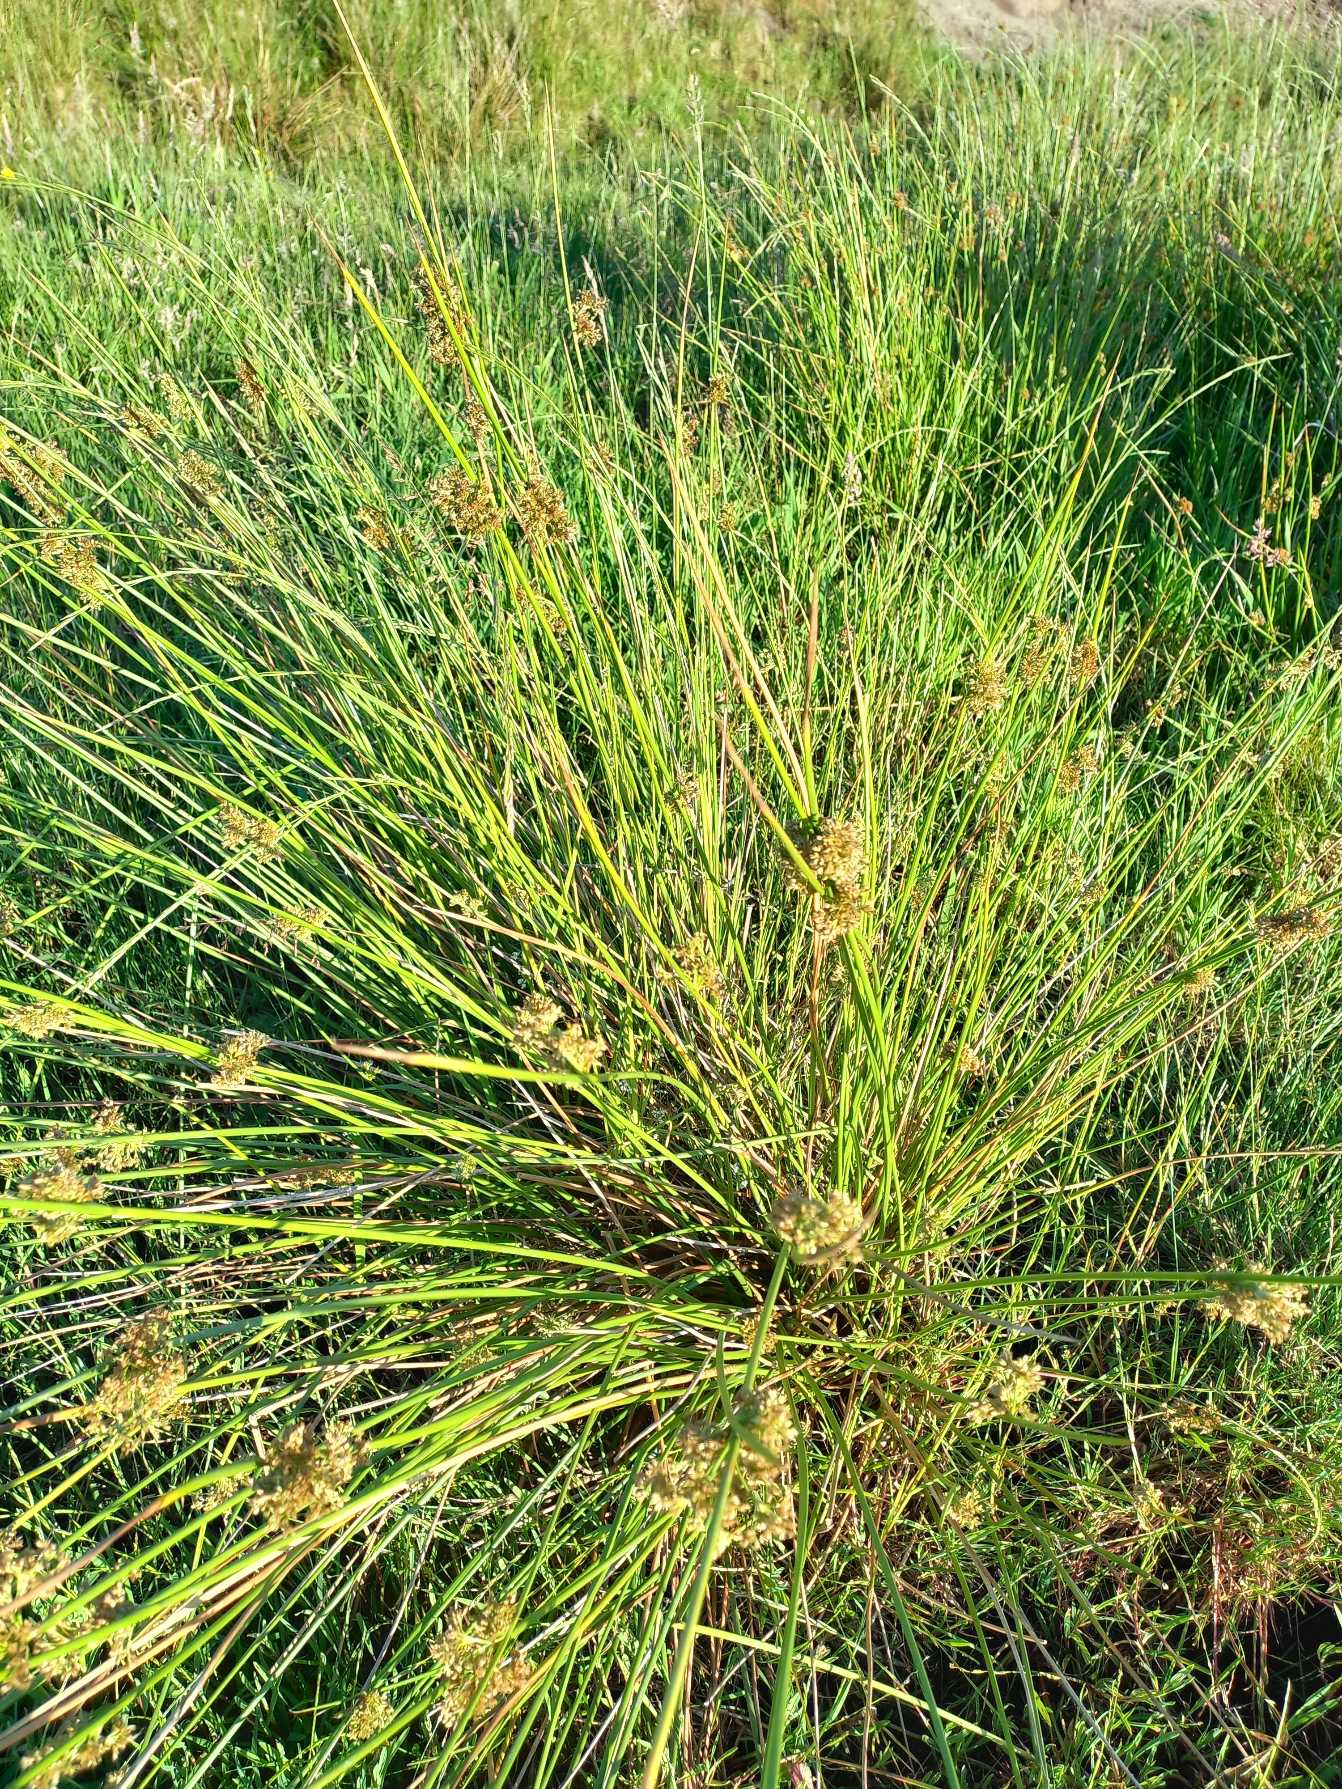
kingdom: Plantae
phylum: Tracheophyta
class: Liliopsida
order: Poales
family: Juncaceae
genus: Juncus
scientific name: Juncus effusus
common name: Lyse-siv
